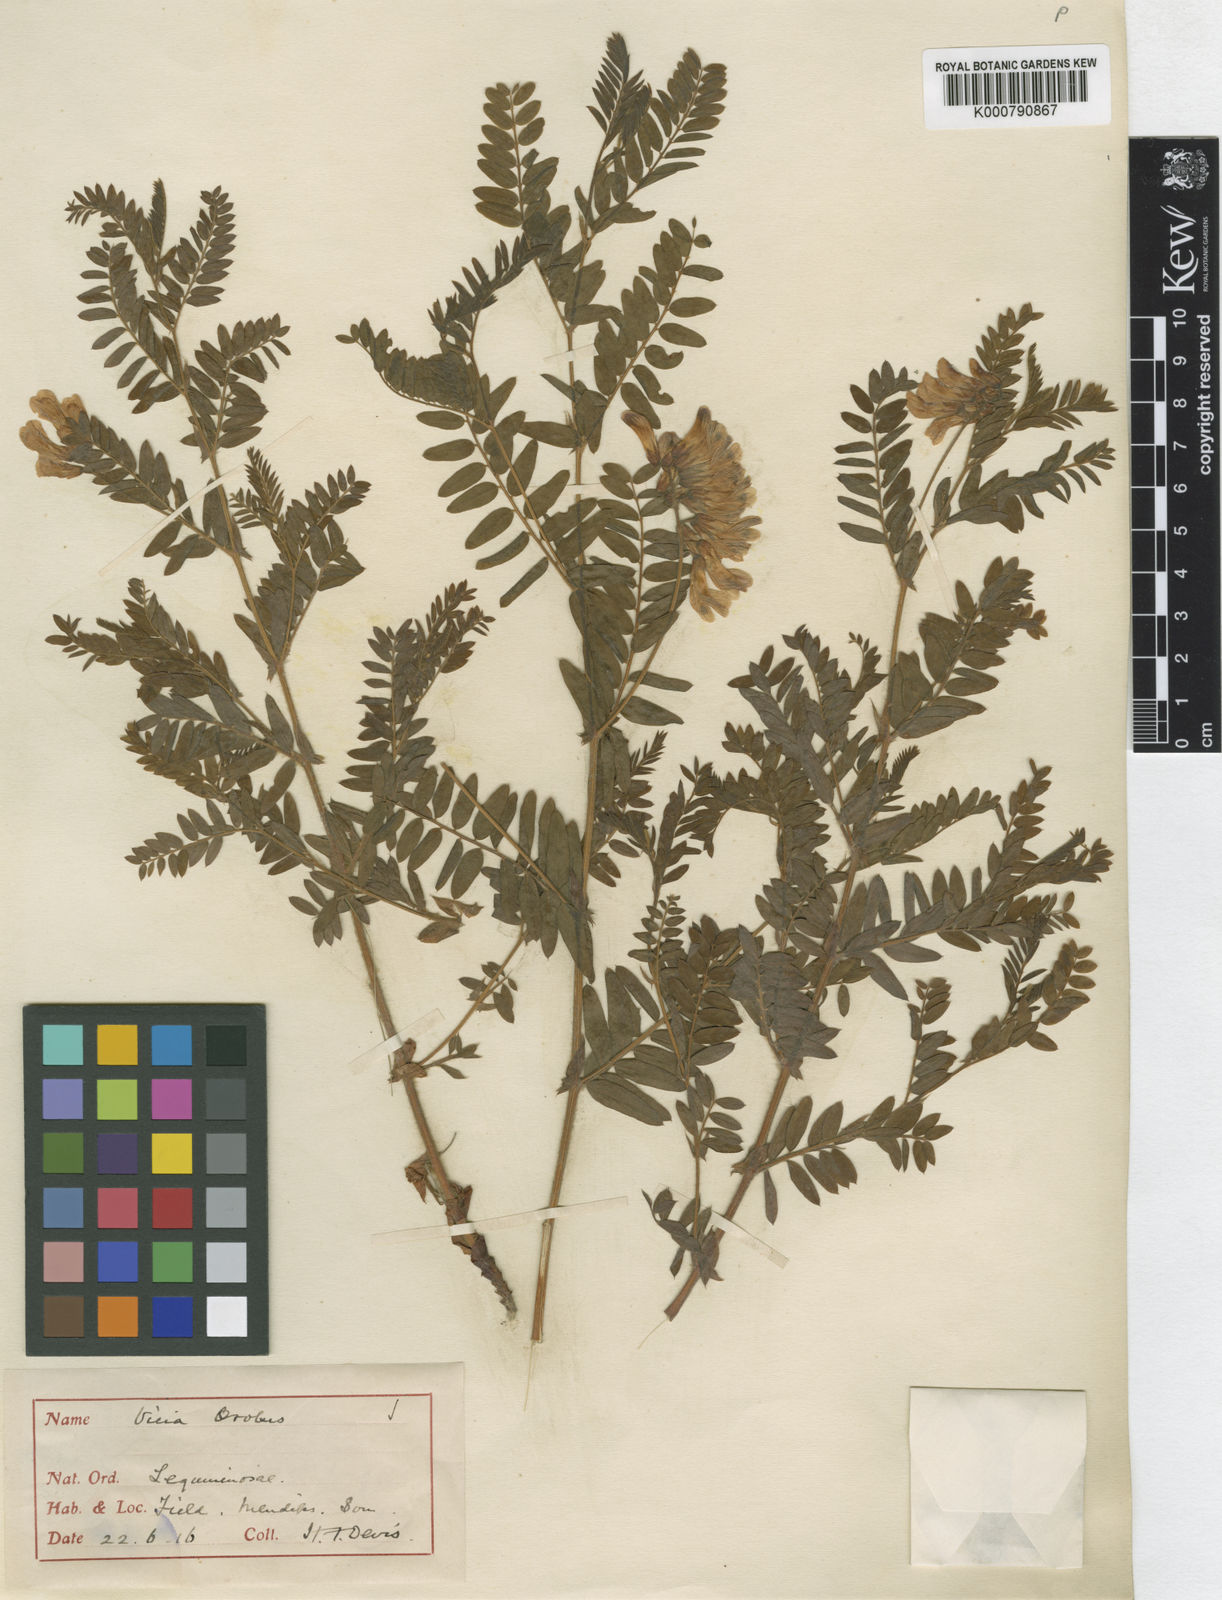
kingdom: Plantae
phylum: Tracheophyta
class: Magnoliopsida
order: Fabales
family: Fabaceae
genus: Vicia
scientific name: Vicia orobus
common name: Wood bitter-vetch
